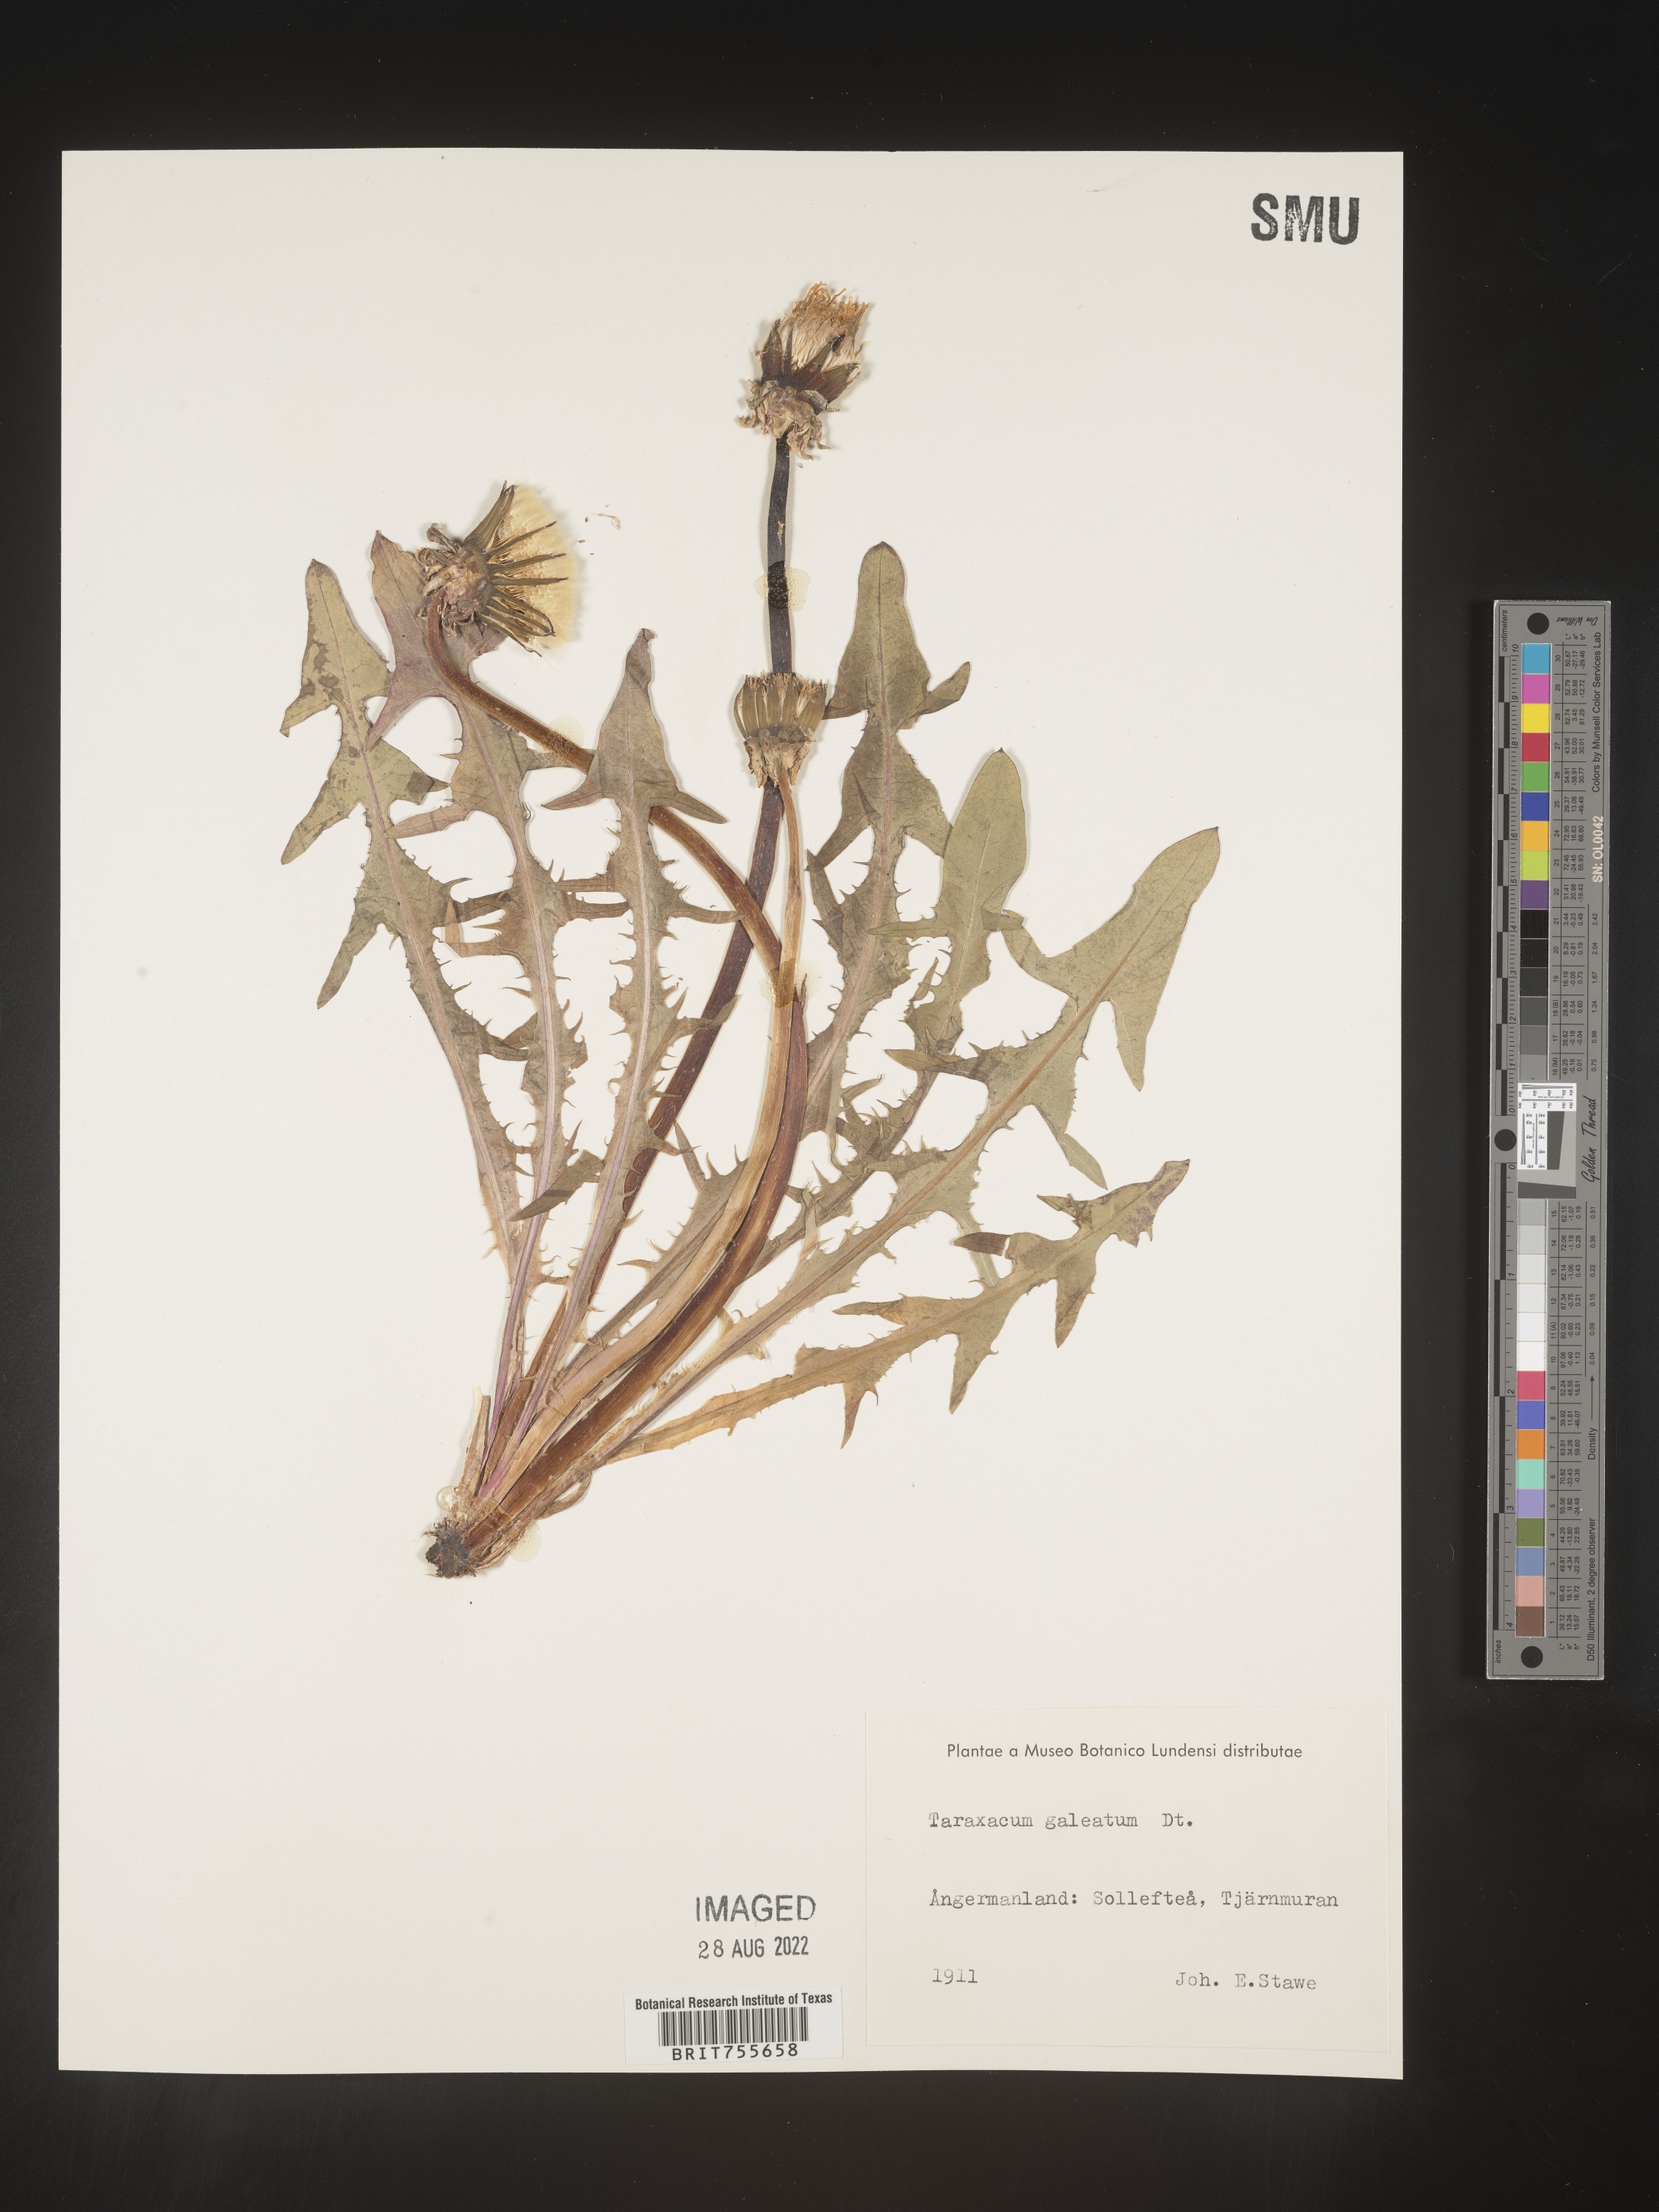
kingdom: Plantae
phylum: Tracheophyta
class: Magnoliopsida
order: Asterales
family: Asteraceae
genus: Taraxacum
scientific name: Taraxacum
